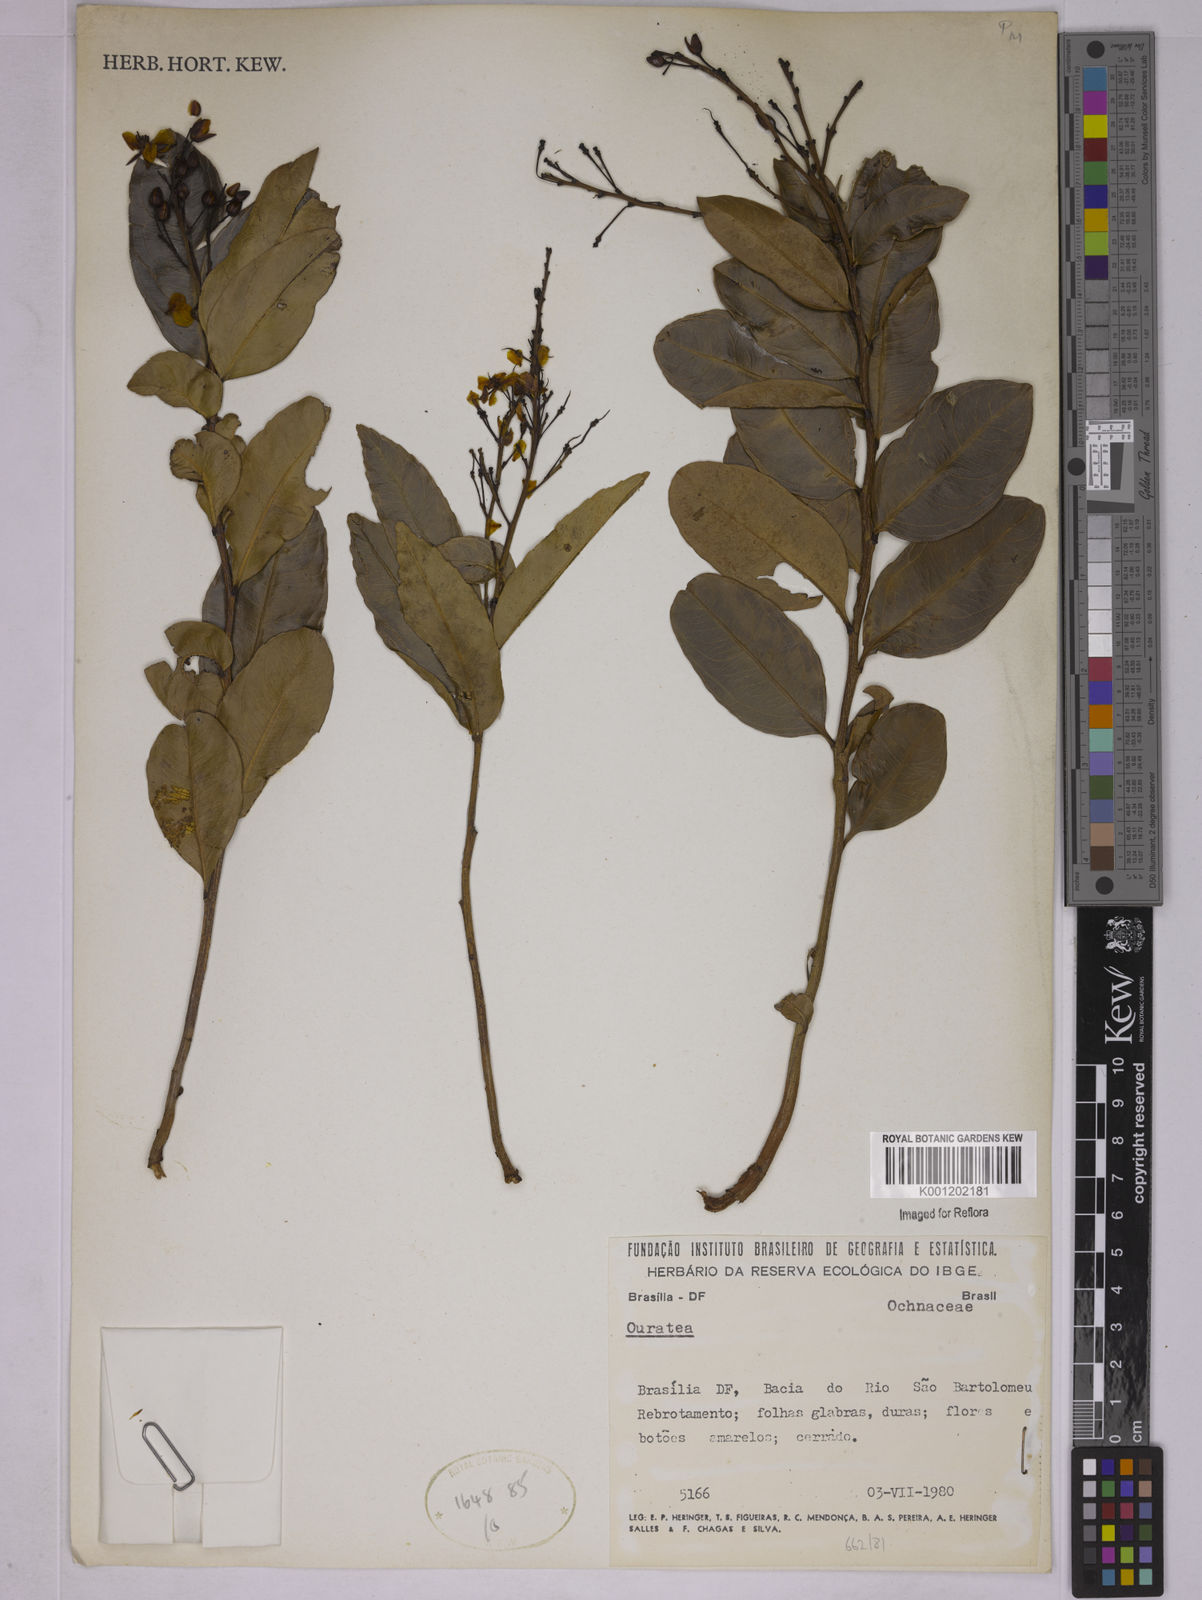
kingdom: Plantae
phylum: Tracheophyta
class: Magnoliopsida
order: Malpighiales
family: Ochnaceae
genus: Ouratea
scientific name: Ouratea
